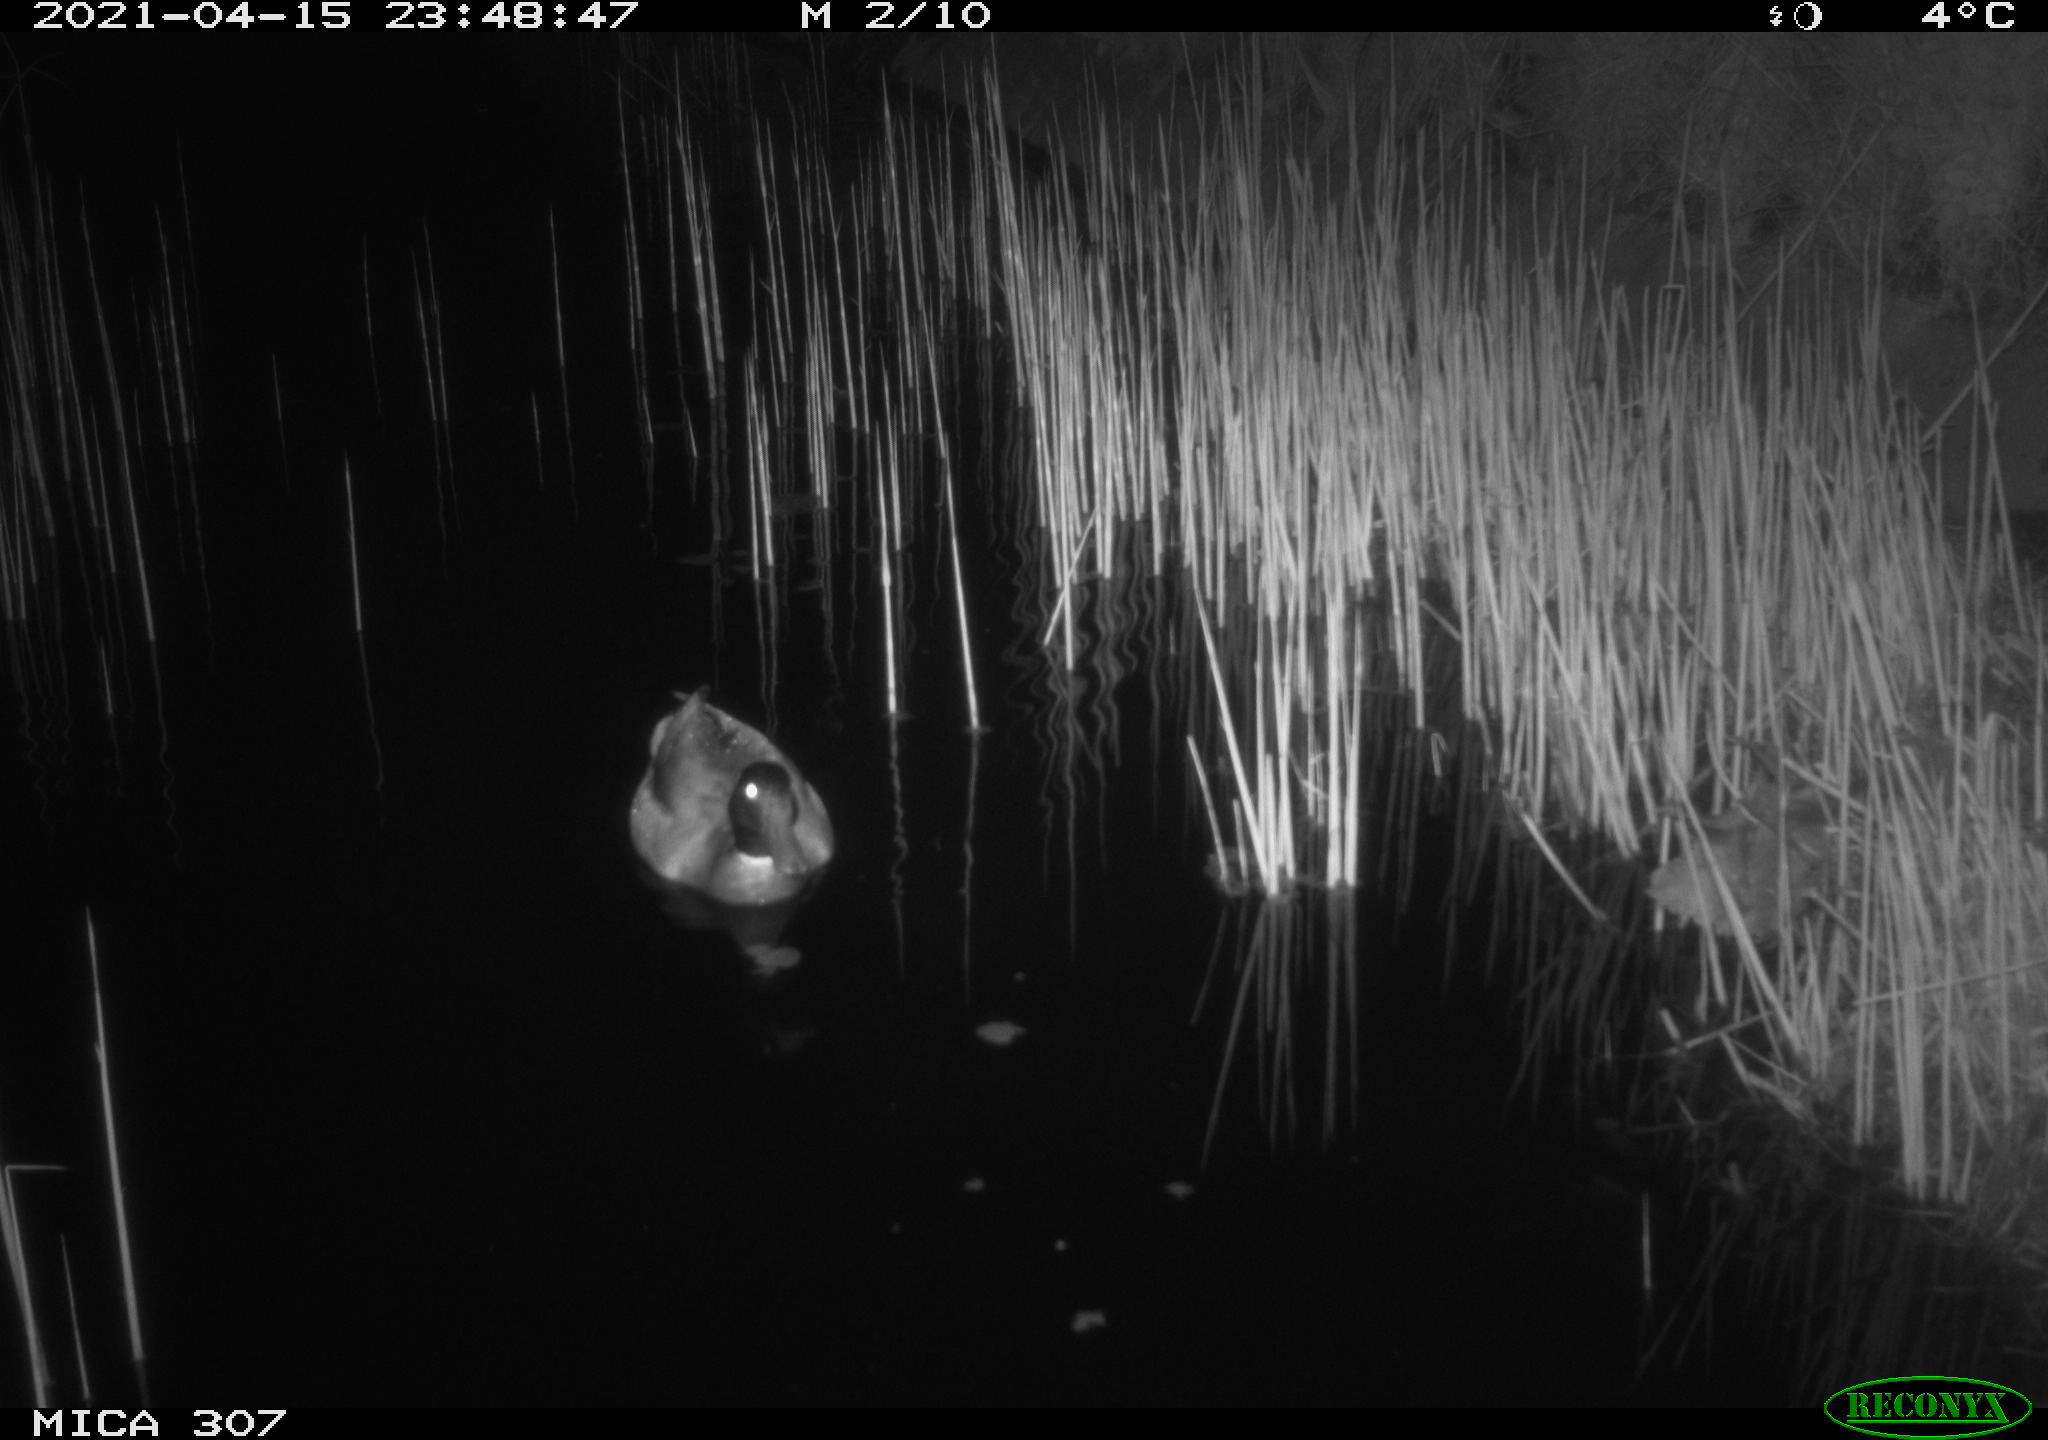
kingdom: Animalia
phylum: Chordata
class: Aves
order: Anseriformes
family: Anatidae
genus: Anas
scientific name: Anas platyrhynchos
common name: Mallard
